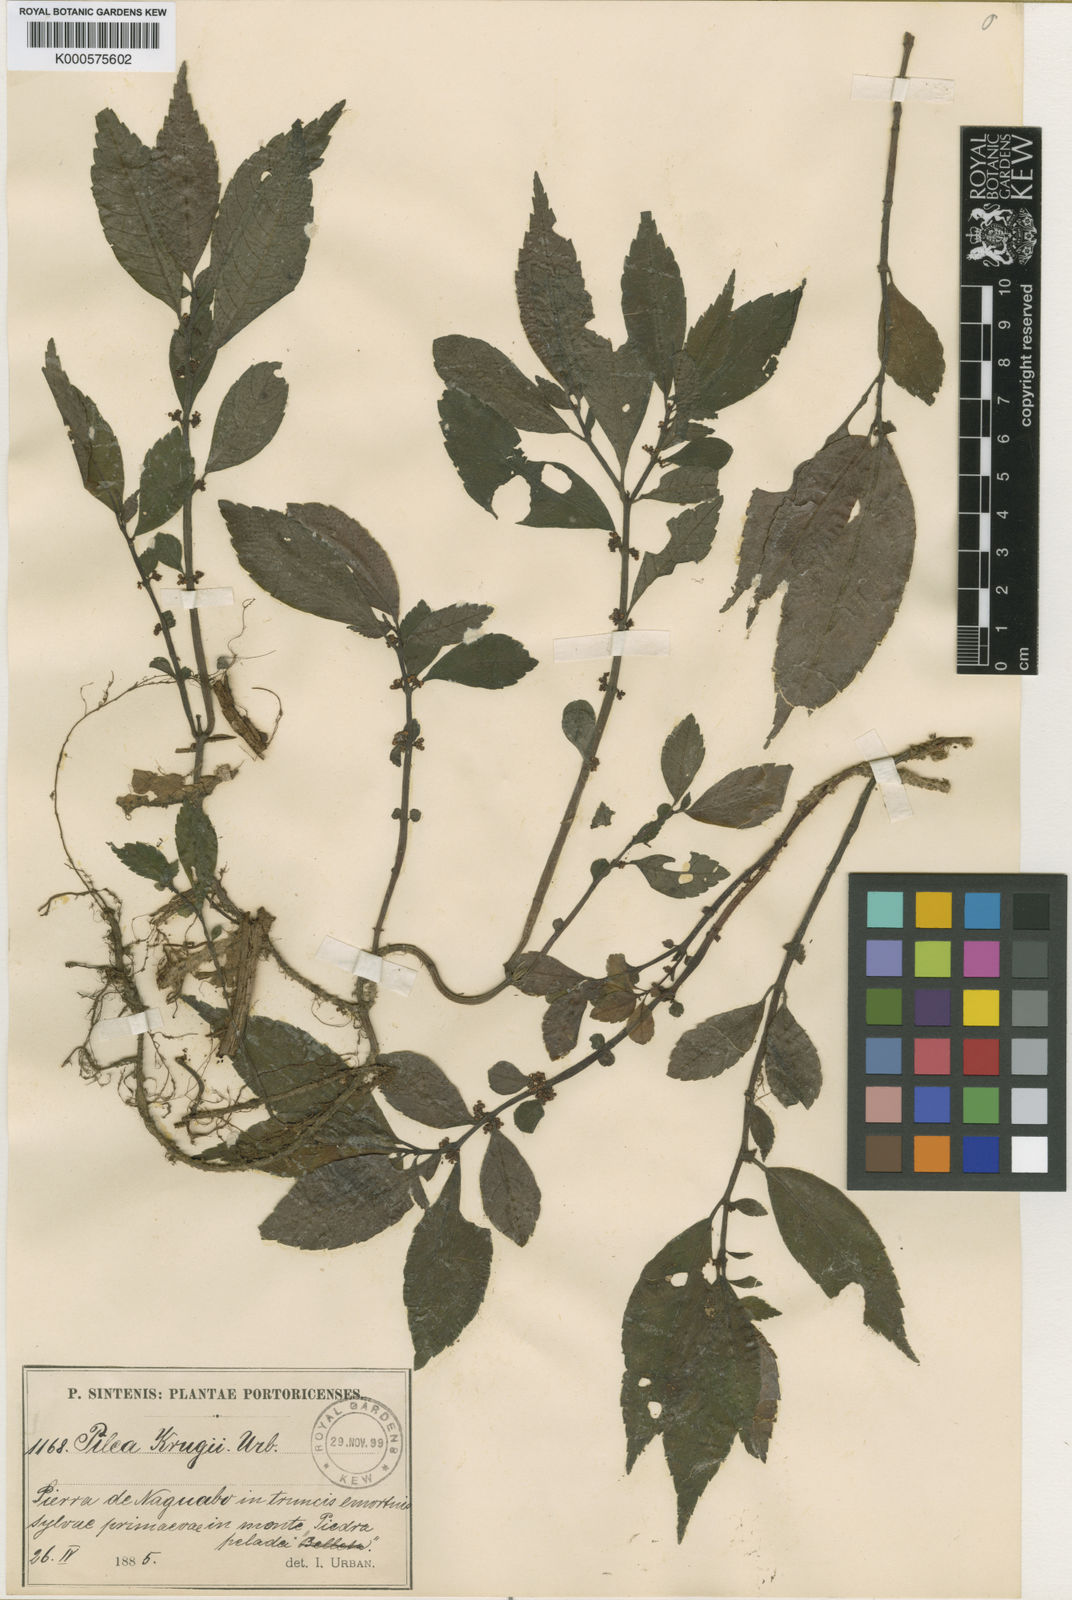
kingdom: Plantae
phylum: Tracheophyta
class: Magnoliopsida
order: Rosales
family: Urticaceae
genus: Pilea
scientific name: Pilea krugii
